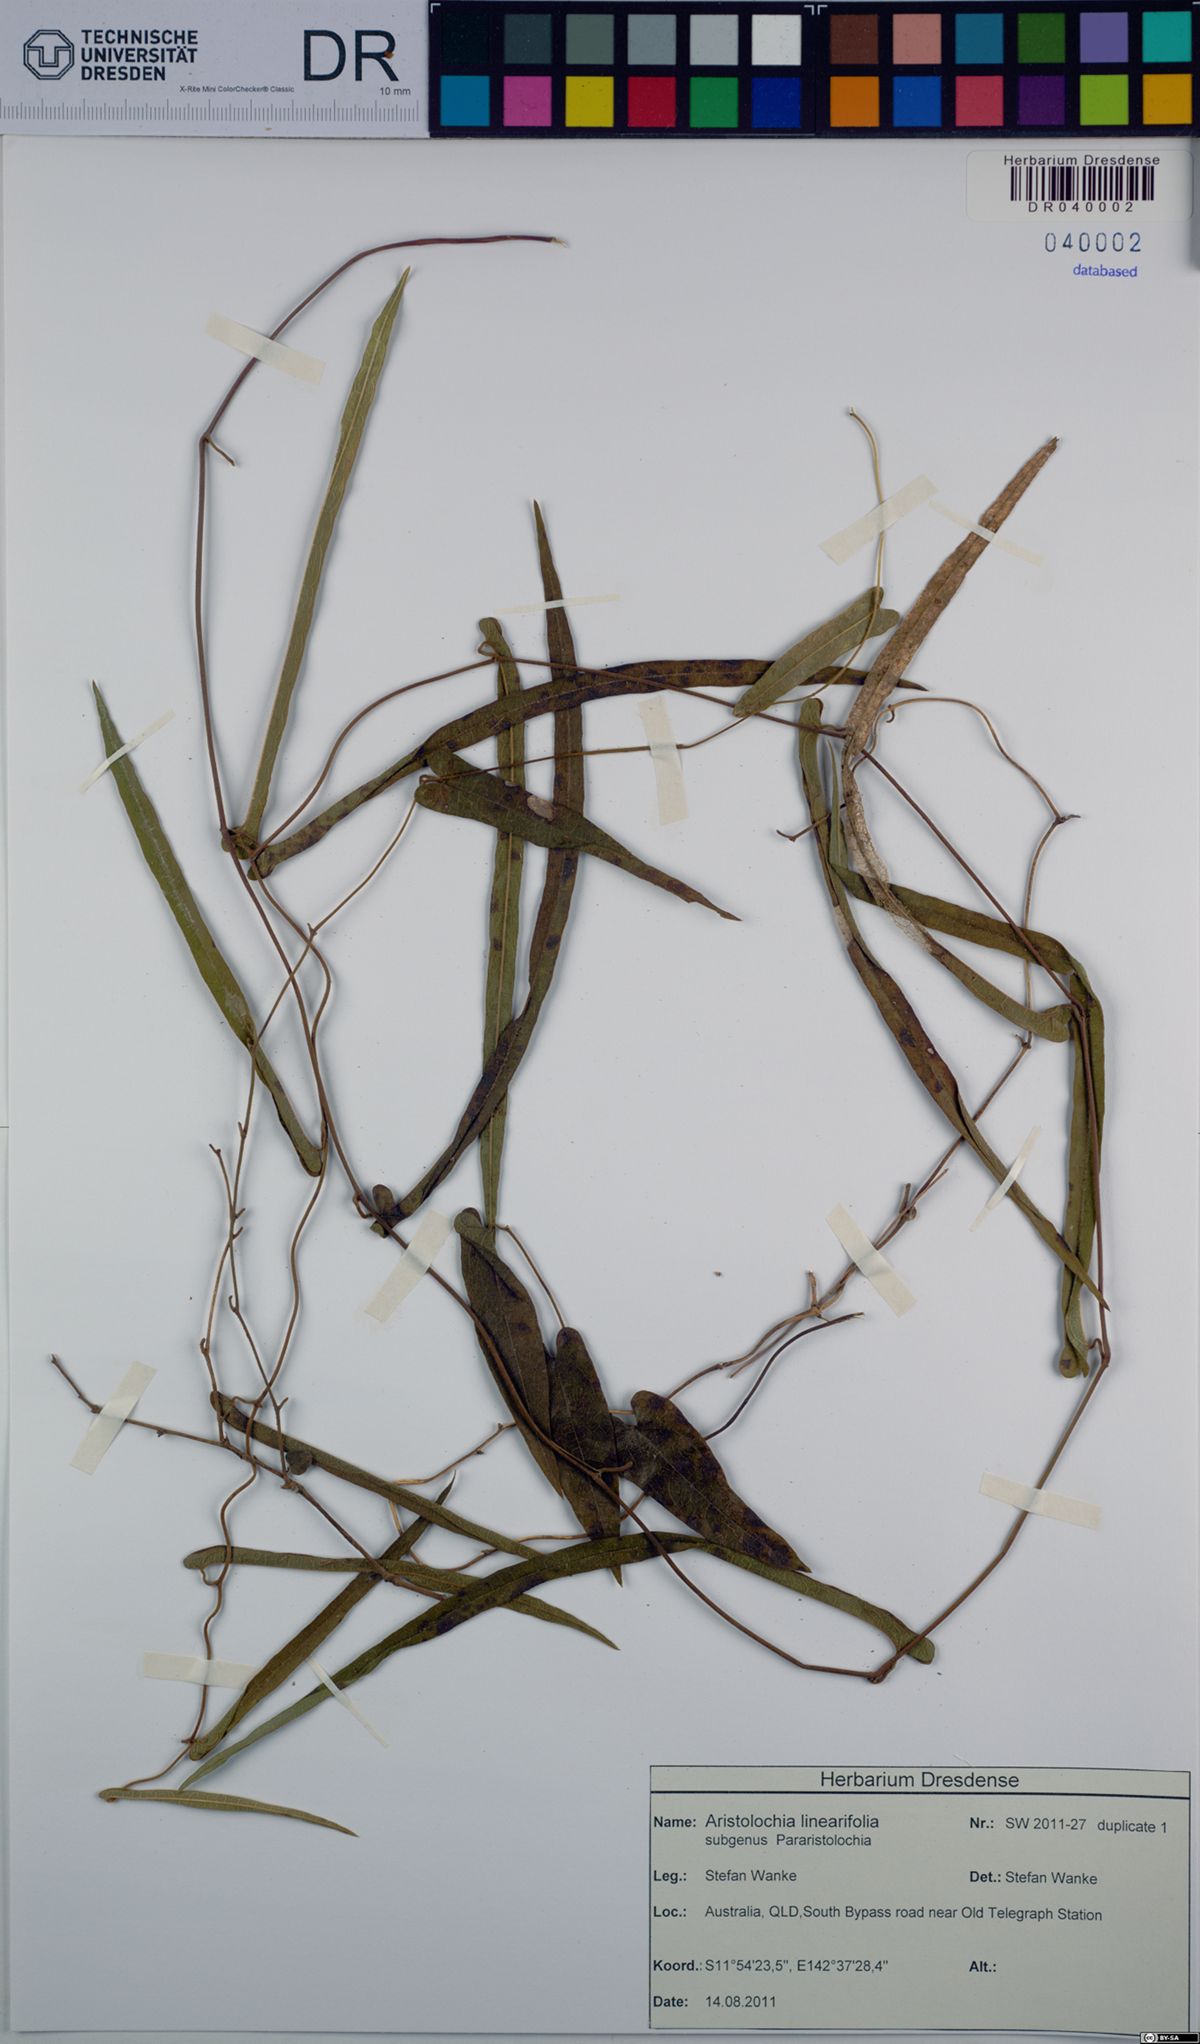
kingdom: Plantae
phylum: Tracheophyta
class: Magnoliopsida
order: Piperales
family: Aristolochiaceae
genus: Aristolochia
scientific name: Aristolochia linearifolia
